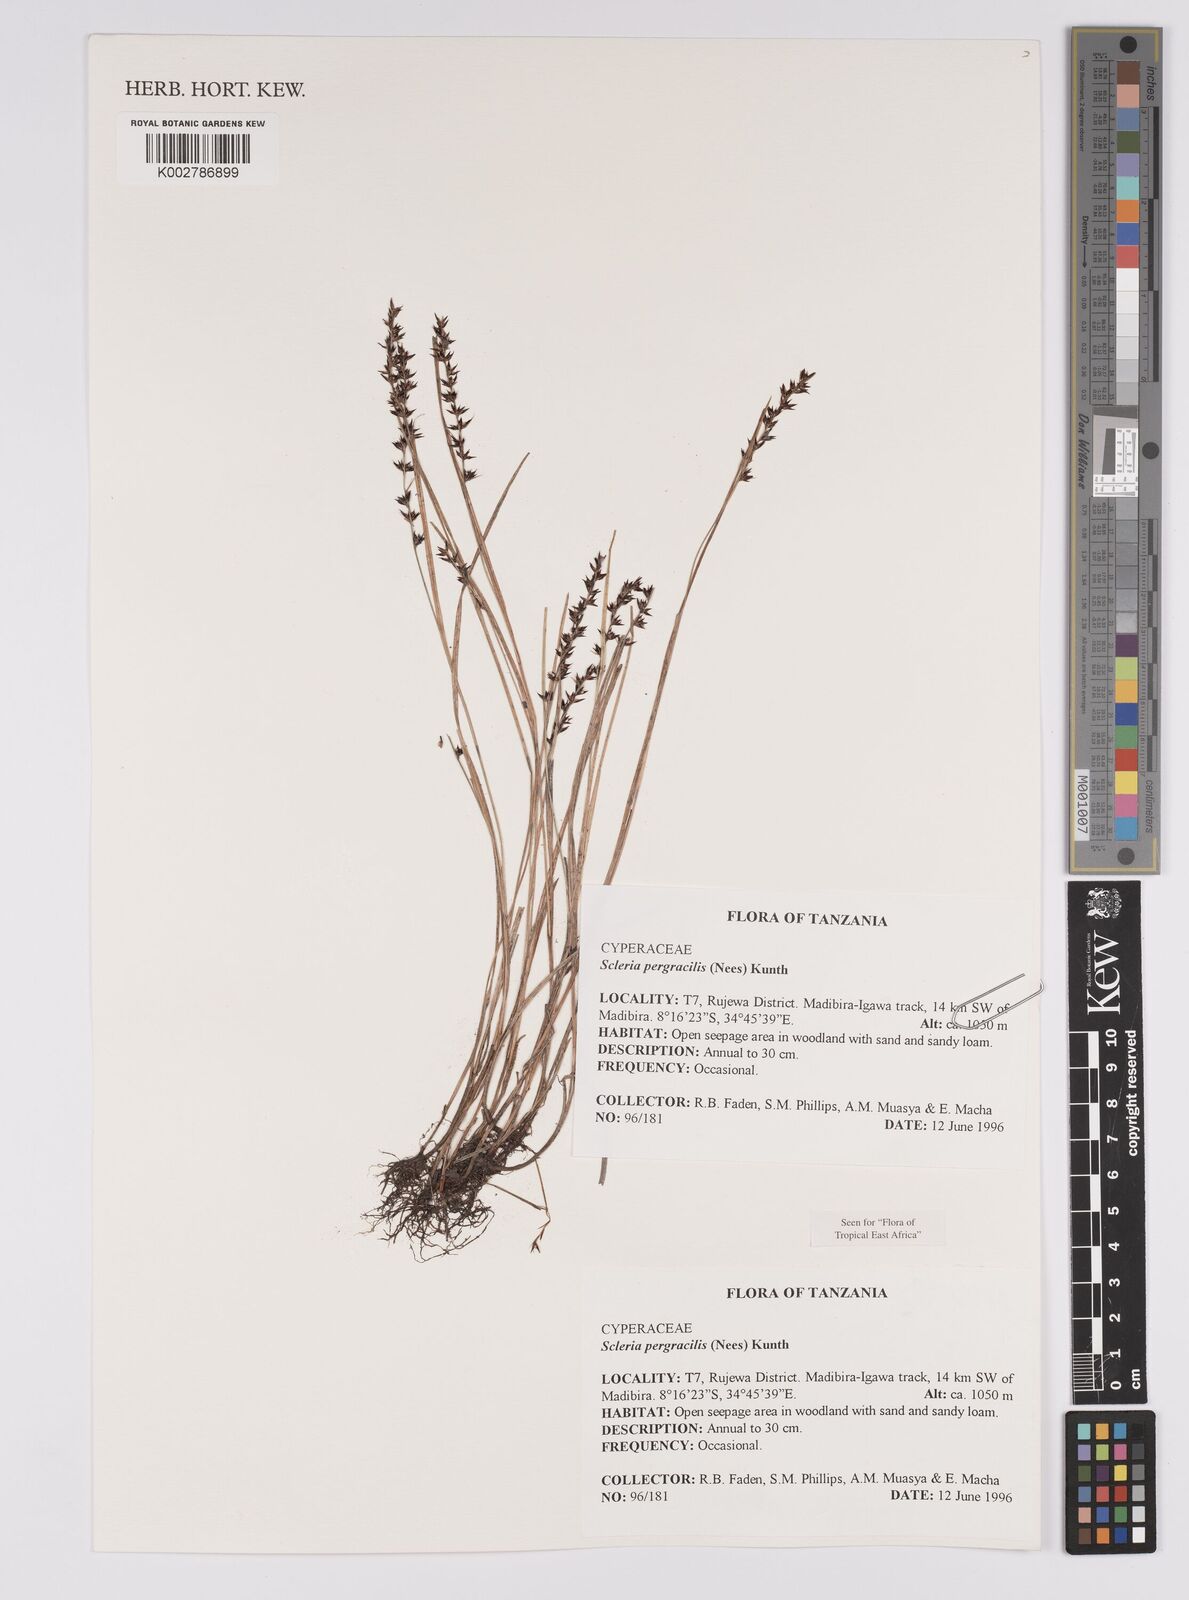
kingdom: Plantae
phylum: Tracheophyta
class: Liliopsida
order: Poales
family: Cyperaceae
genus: Scleria
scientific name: Scleria pergracilis
